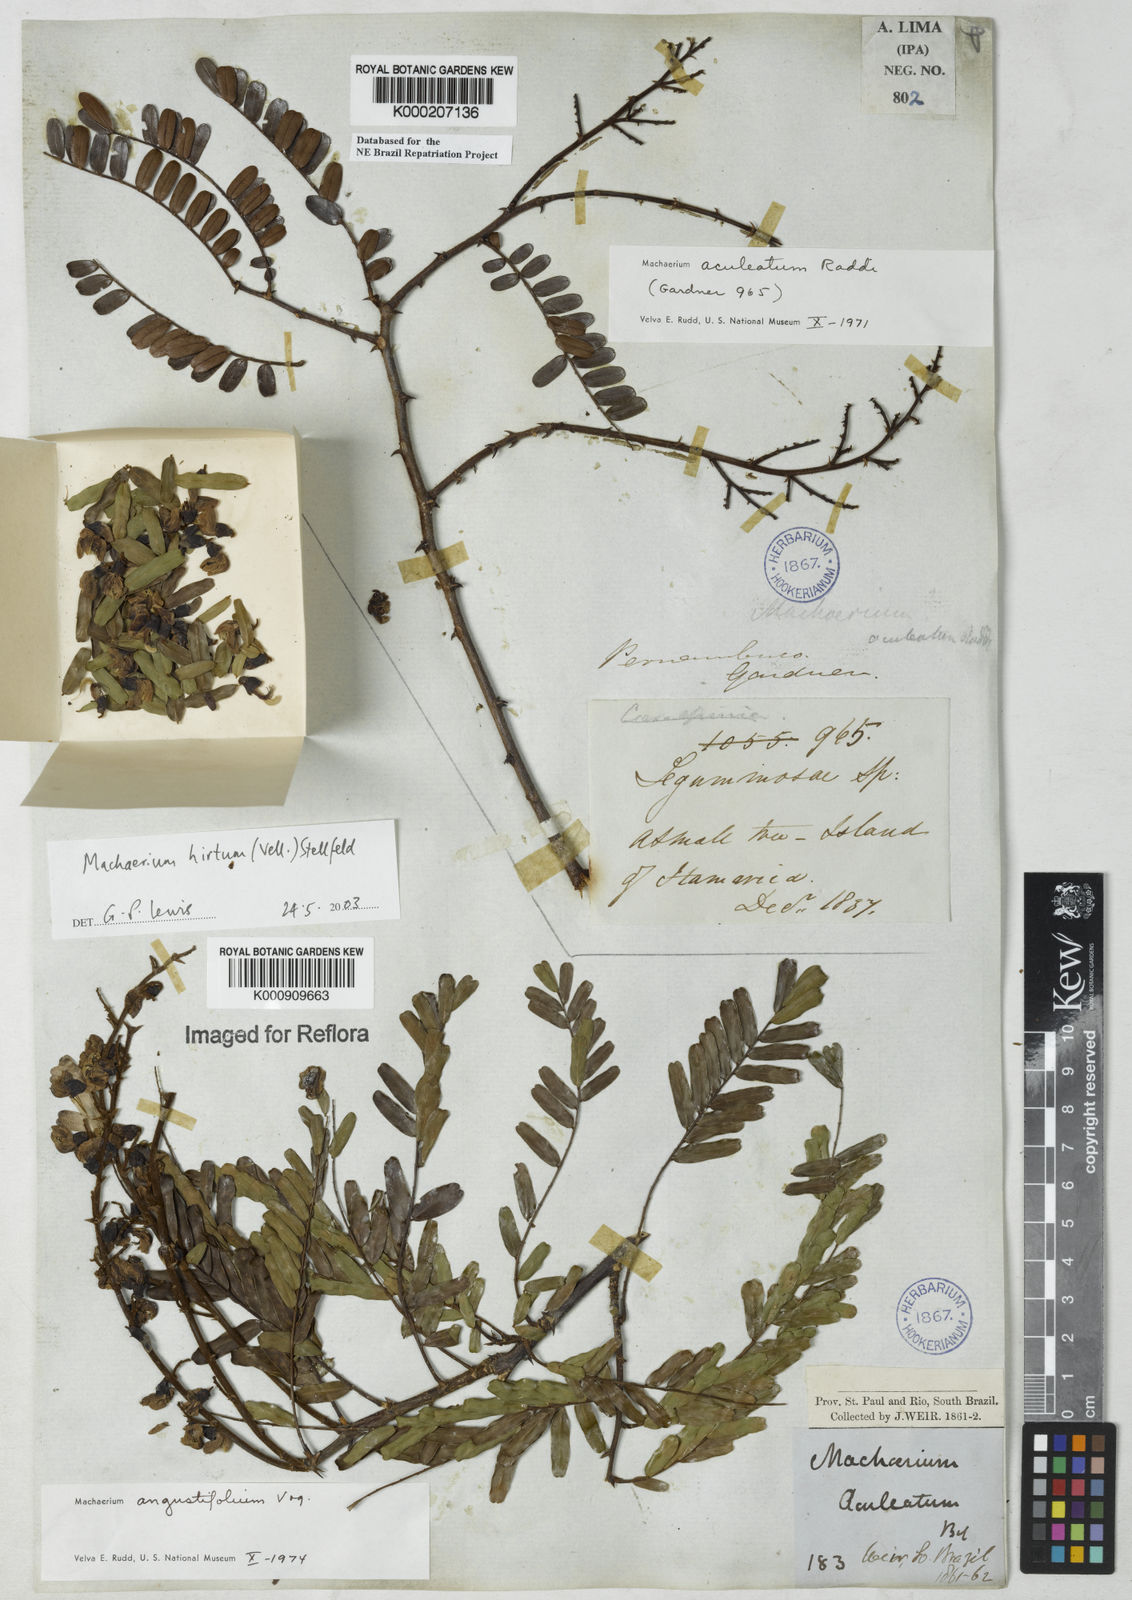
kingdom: Plantae
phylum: Tracheophyta
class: Magnoliopsida
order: Fabales
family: Fabaceae
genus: Machaerium
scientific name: Machaerium hirtum
